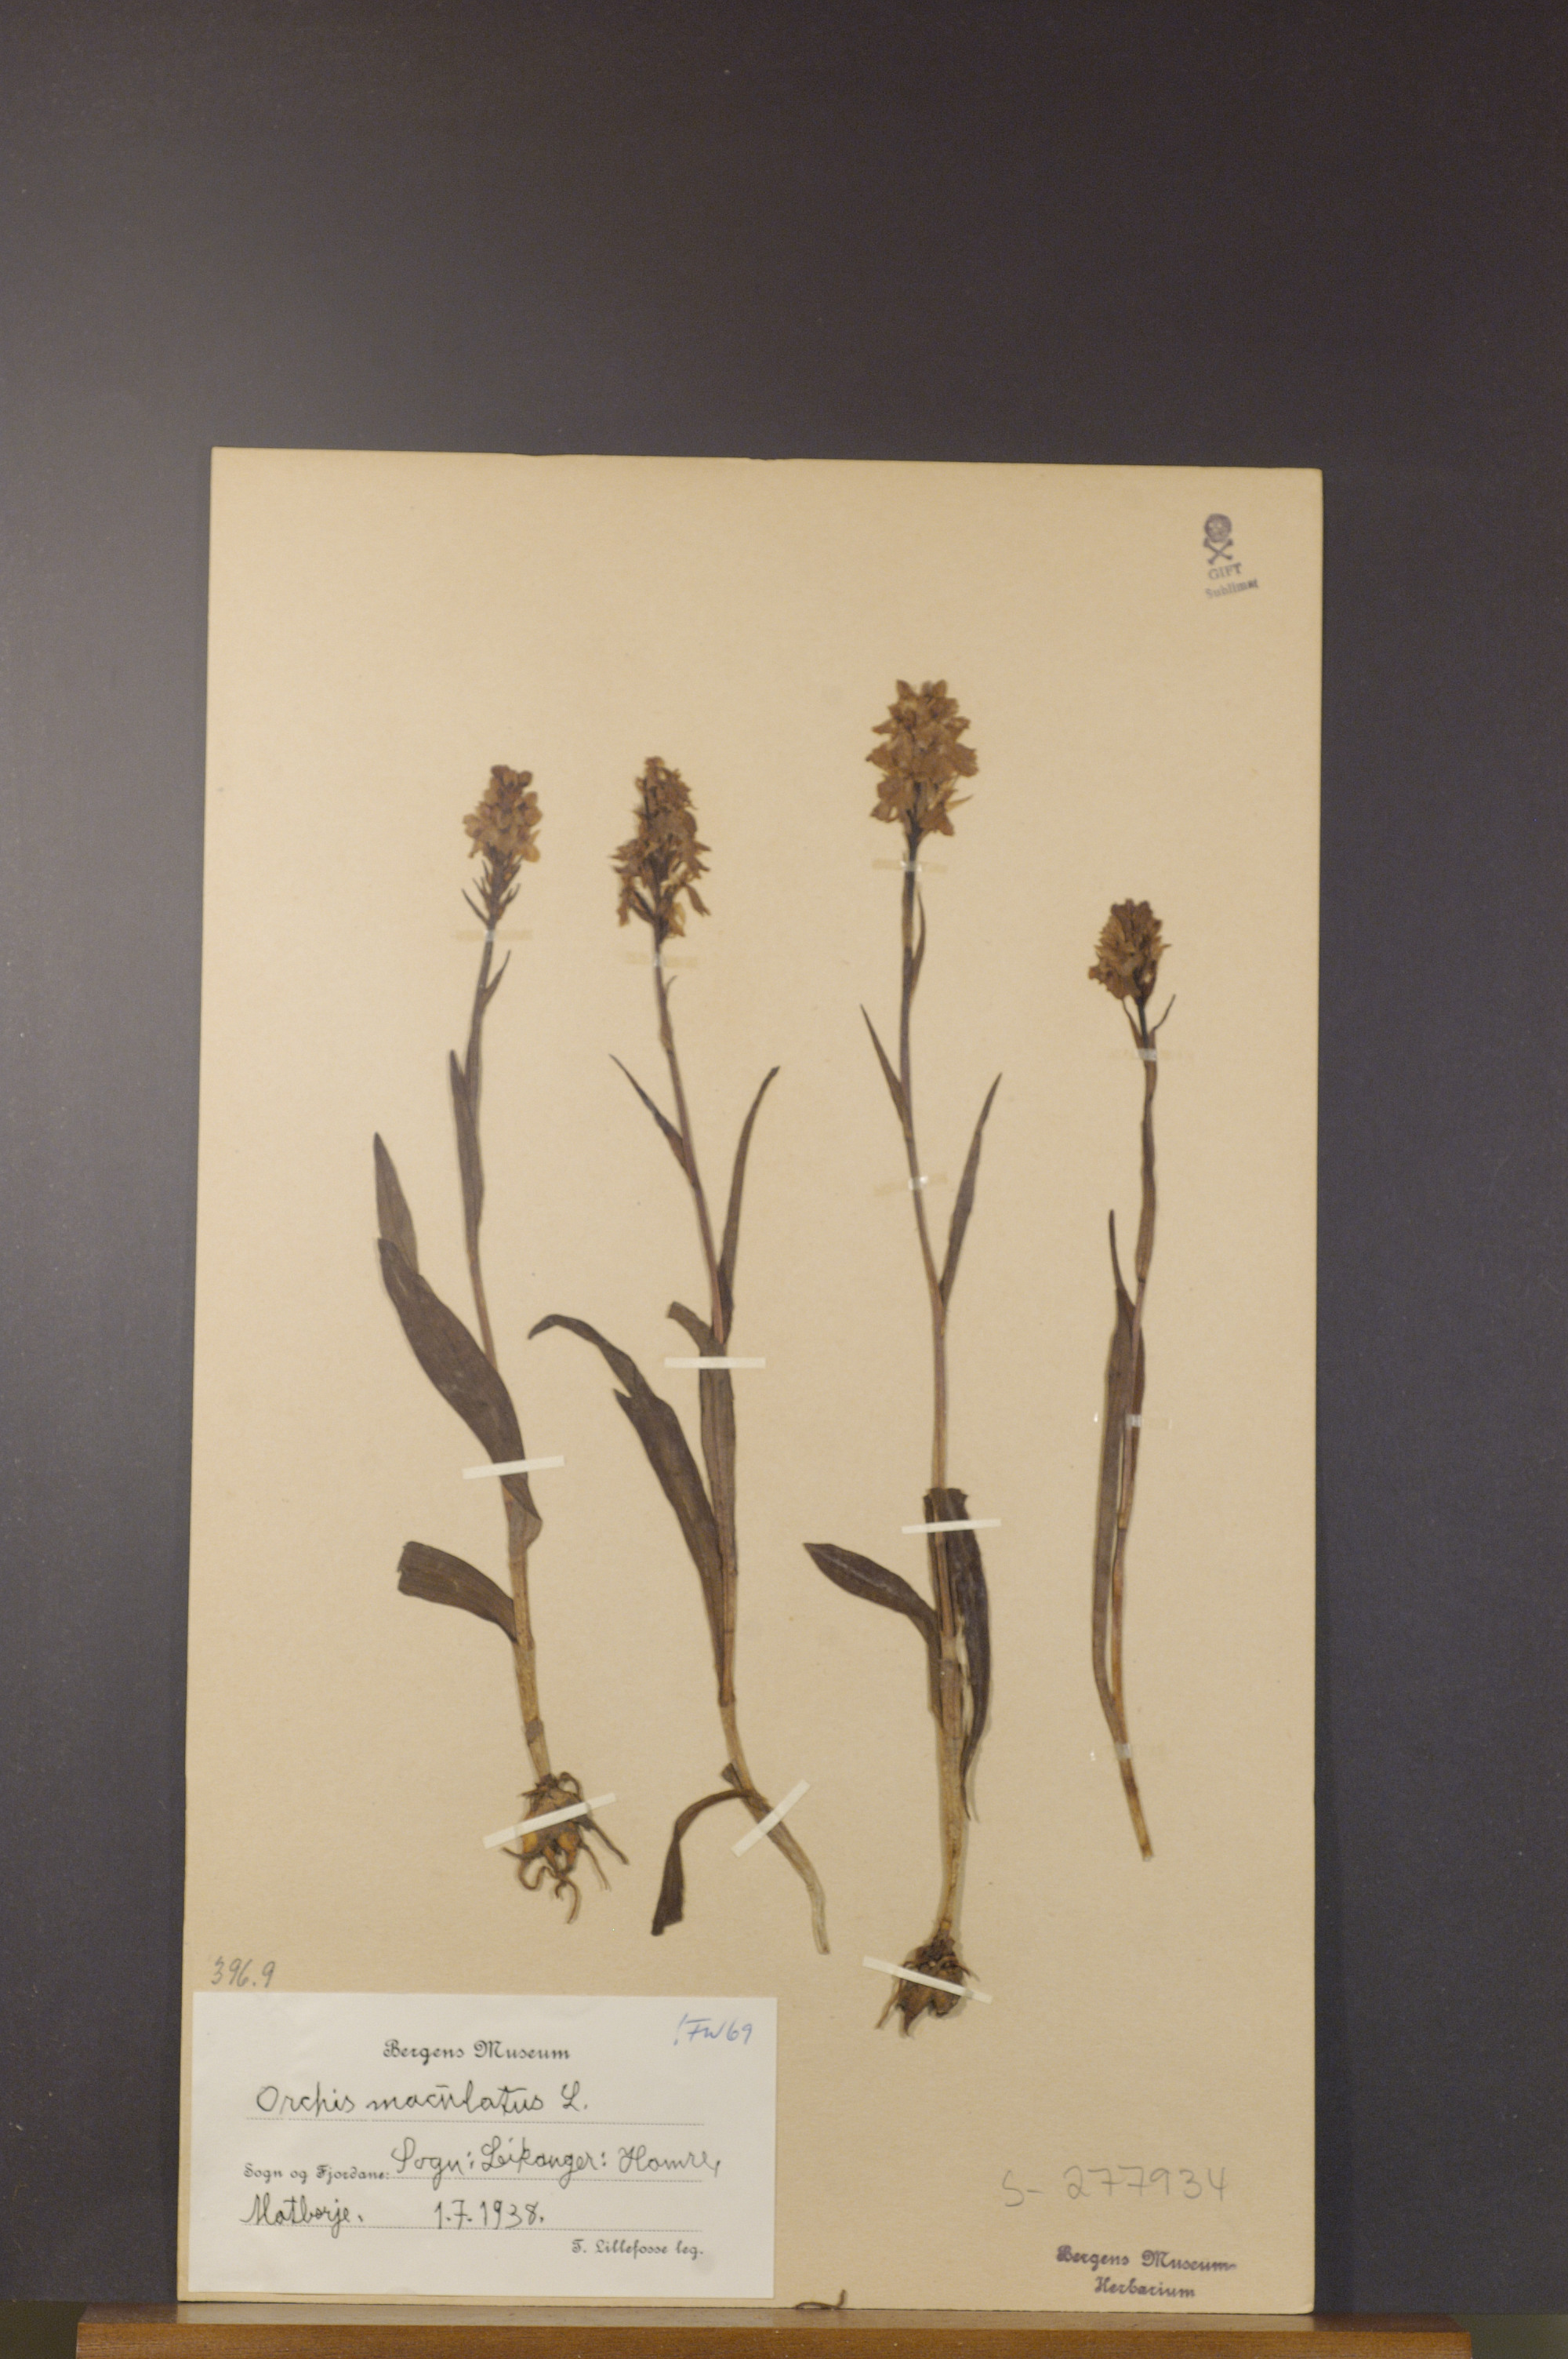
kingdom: Plantae
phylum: Tracheophyta
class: Liliopsida
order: Asparagales
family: Orchidaceae
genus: Dactylorhiza
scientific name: Dactylorhiza maculata
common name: Heath spotted-orchid
